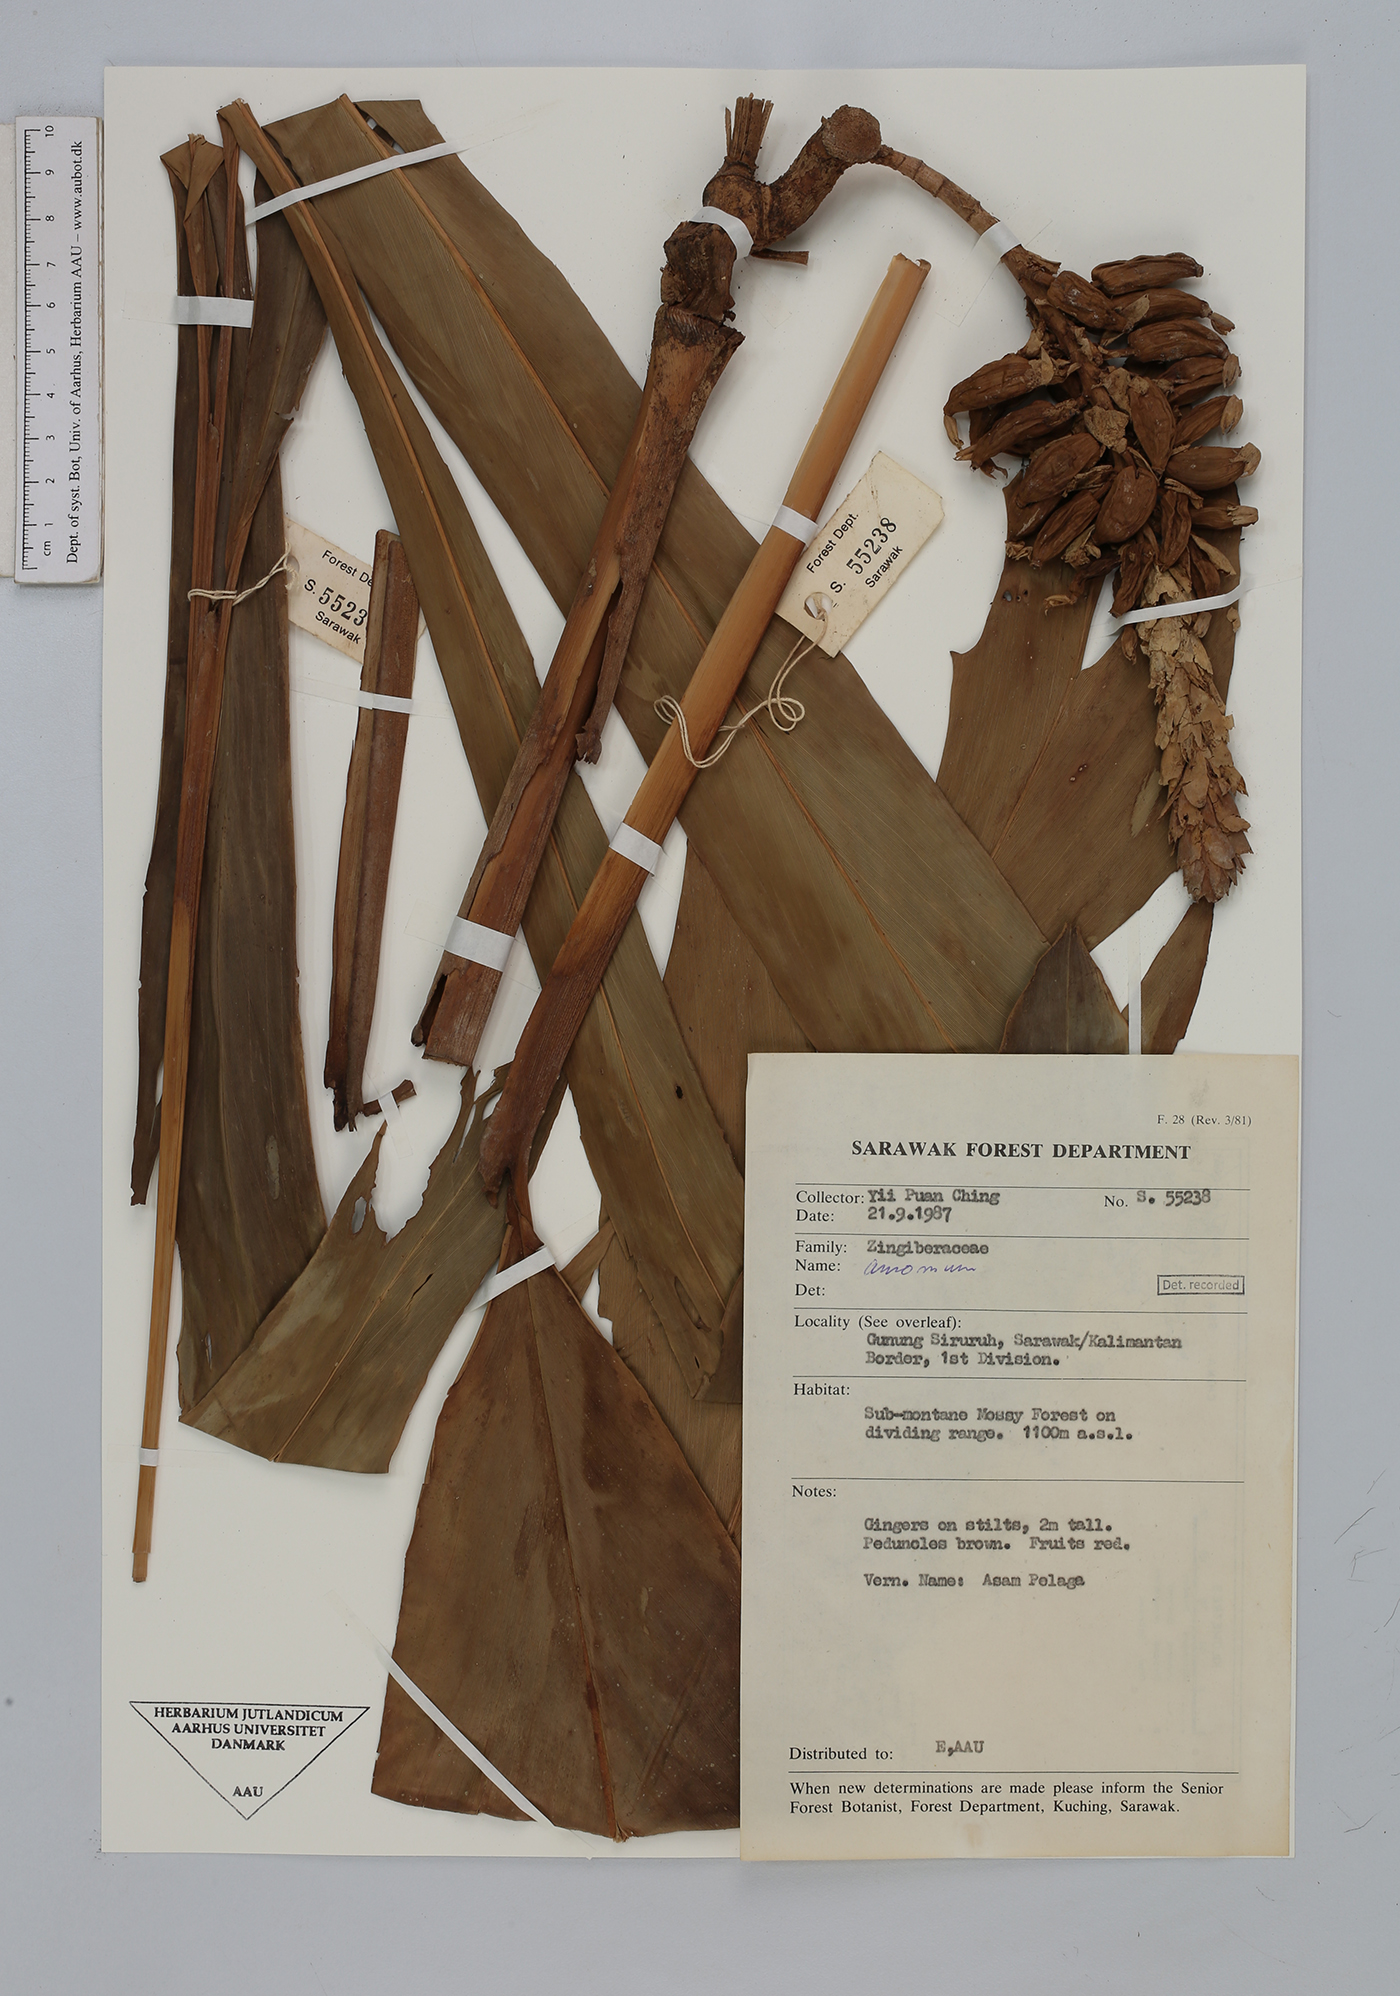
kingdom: Plantae
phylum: Tracheophyta
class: Liliopsida
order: Zingiberales
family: Zingiberaceae
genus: Amomum
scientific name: Amomum
